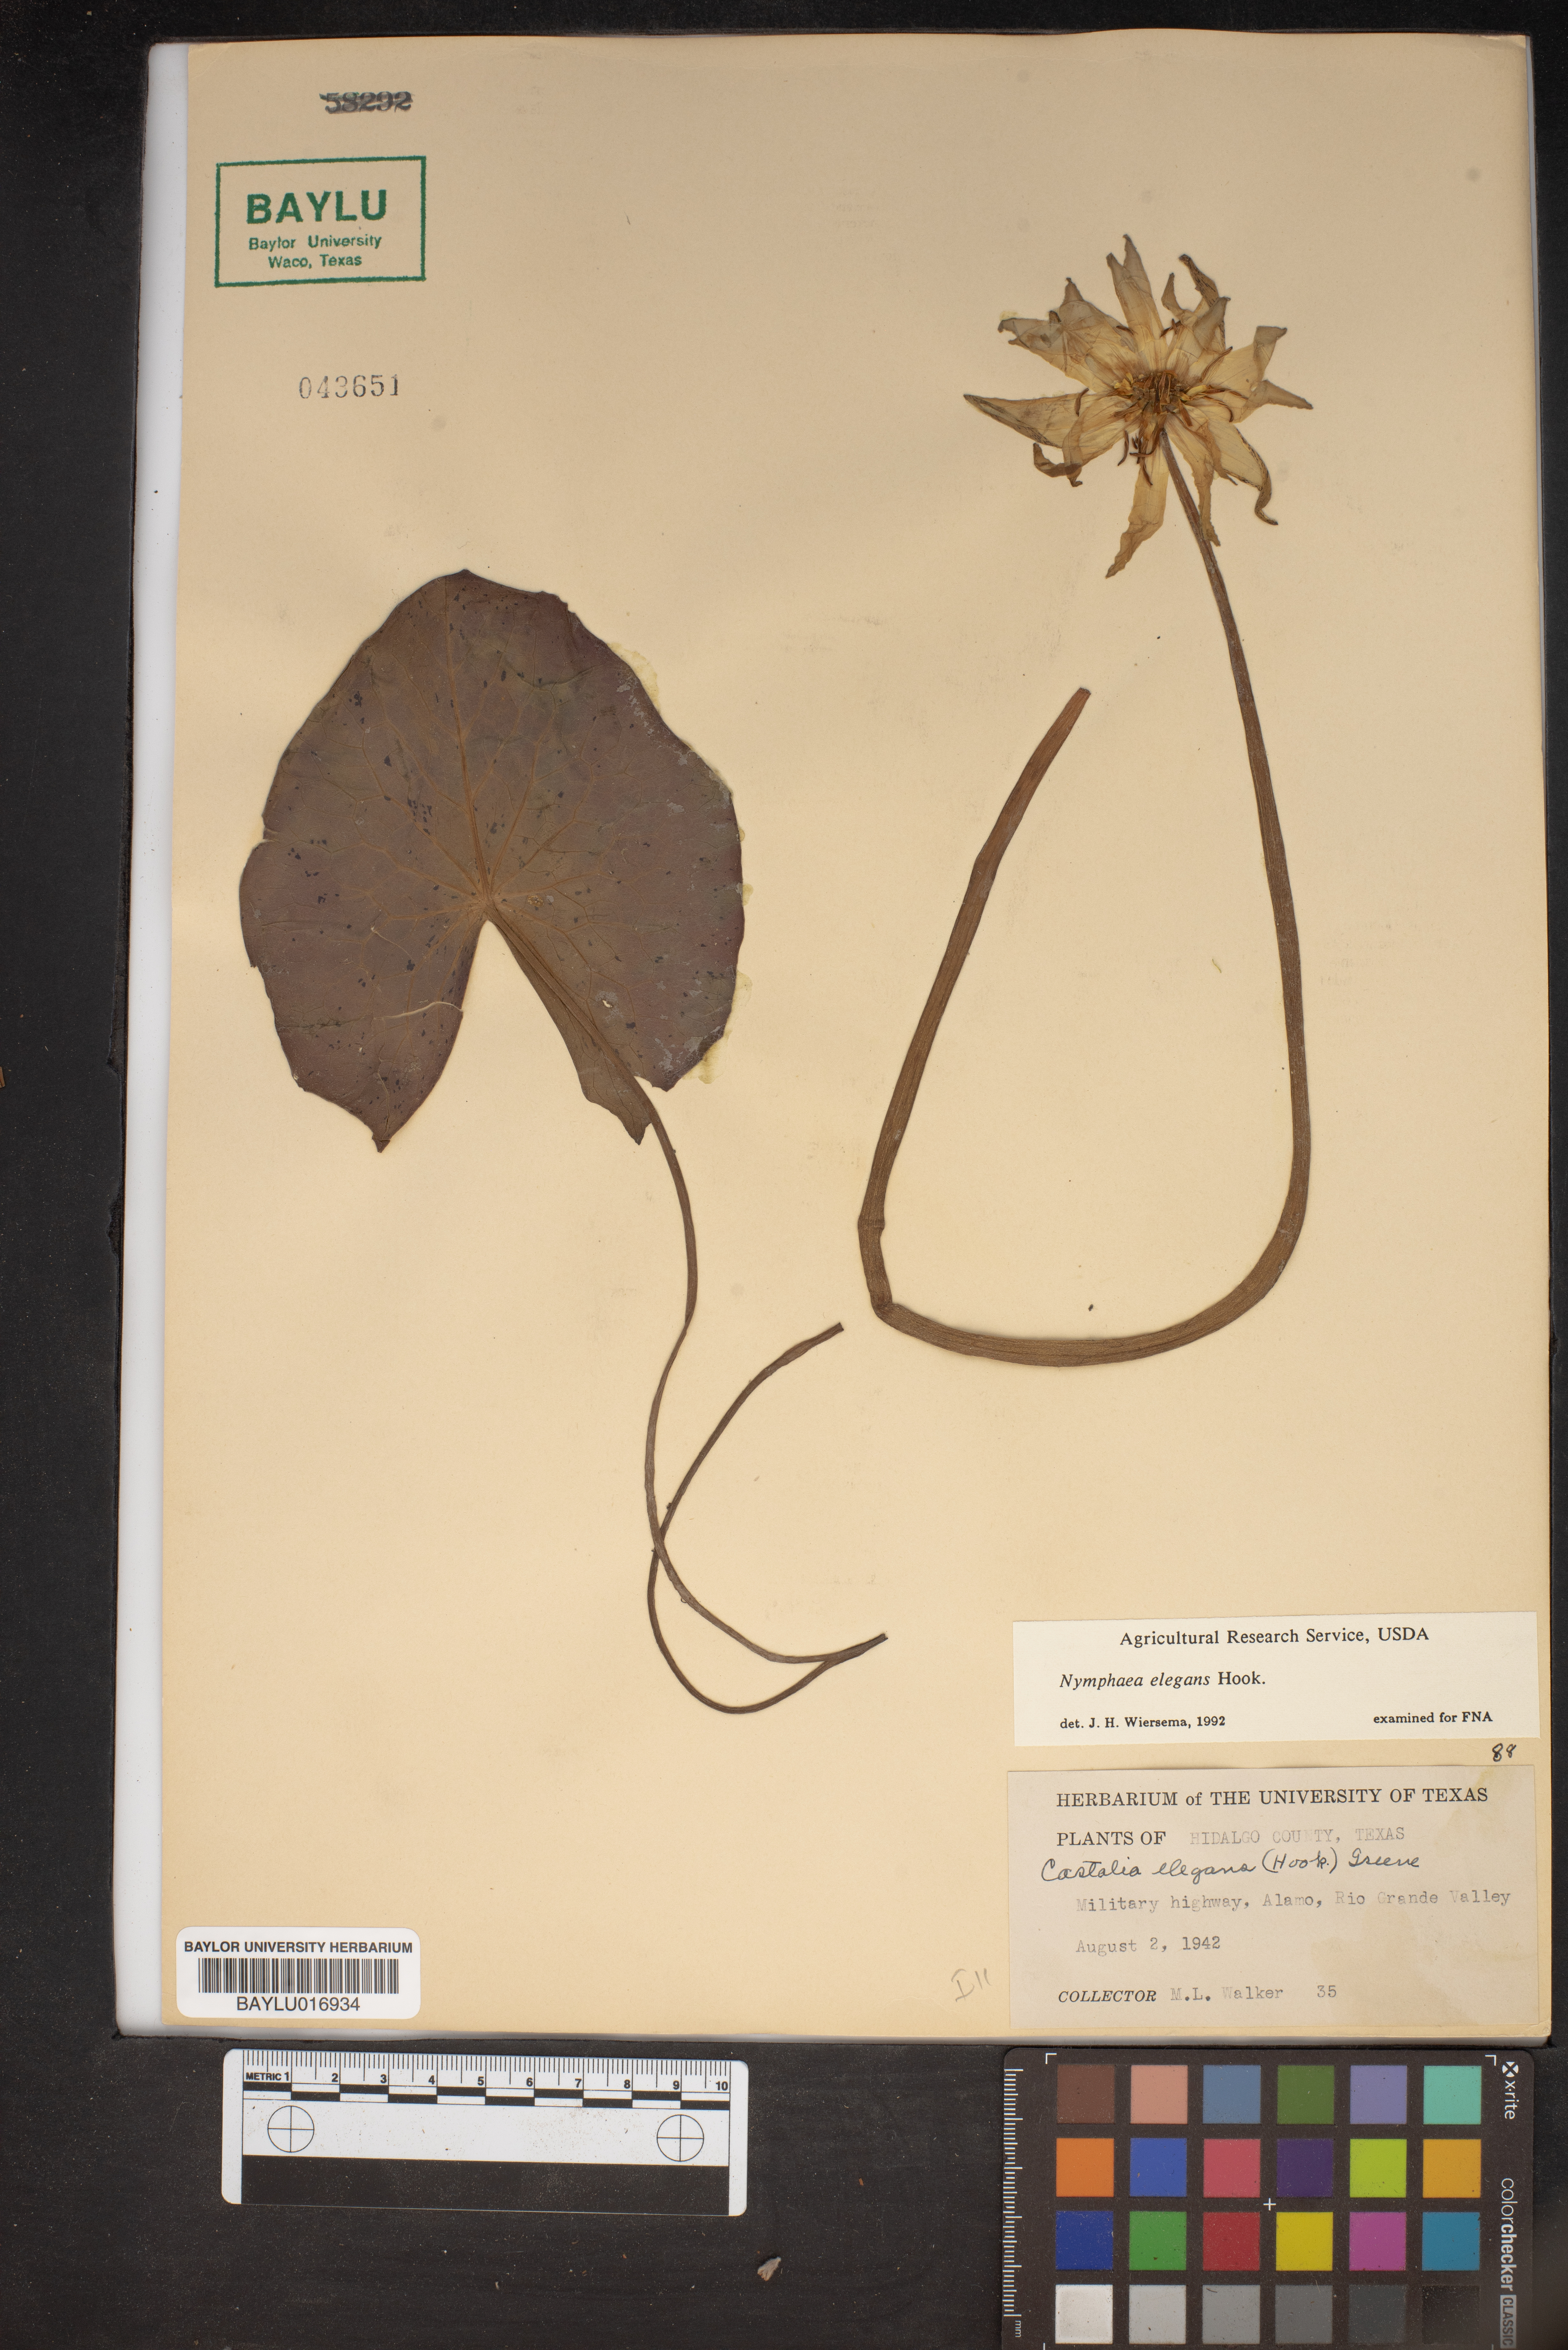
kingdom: Plantae
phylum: Tracheophyta
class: Magnoliopsida
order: Nymphaeales
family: Nymphaeaceae
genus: Nymphaea
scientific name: Nymphaea elegans
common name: Blue water-lily
